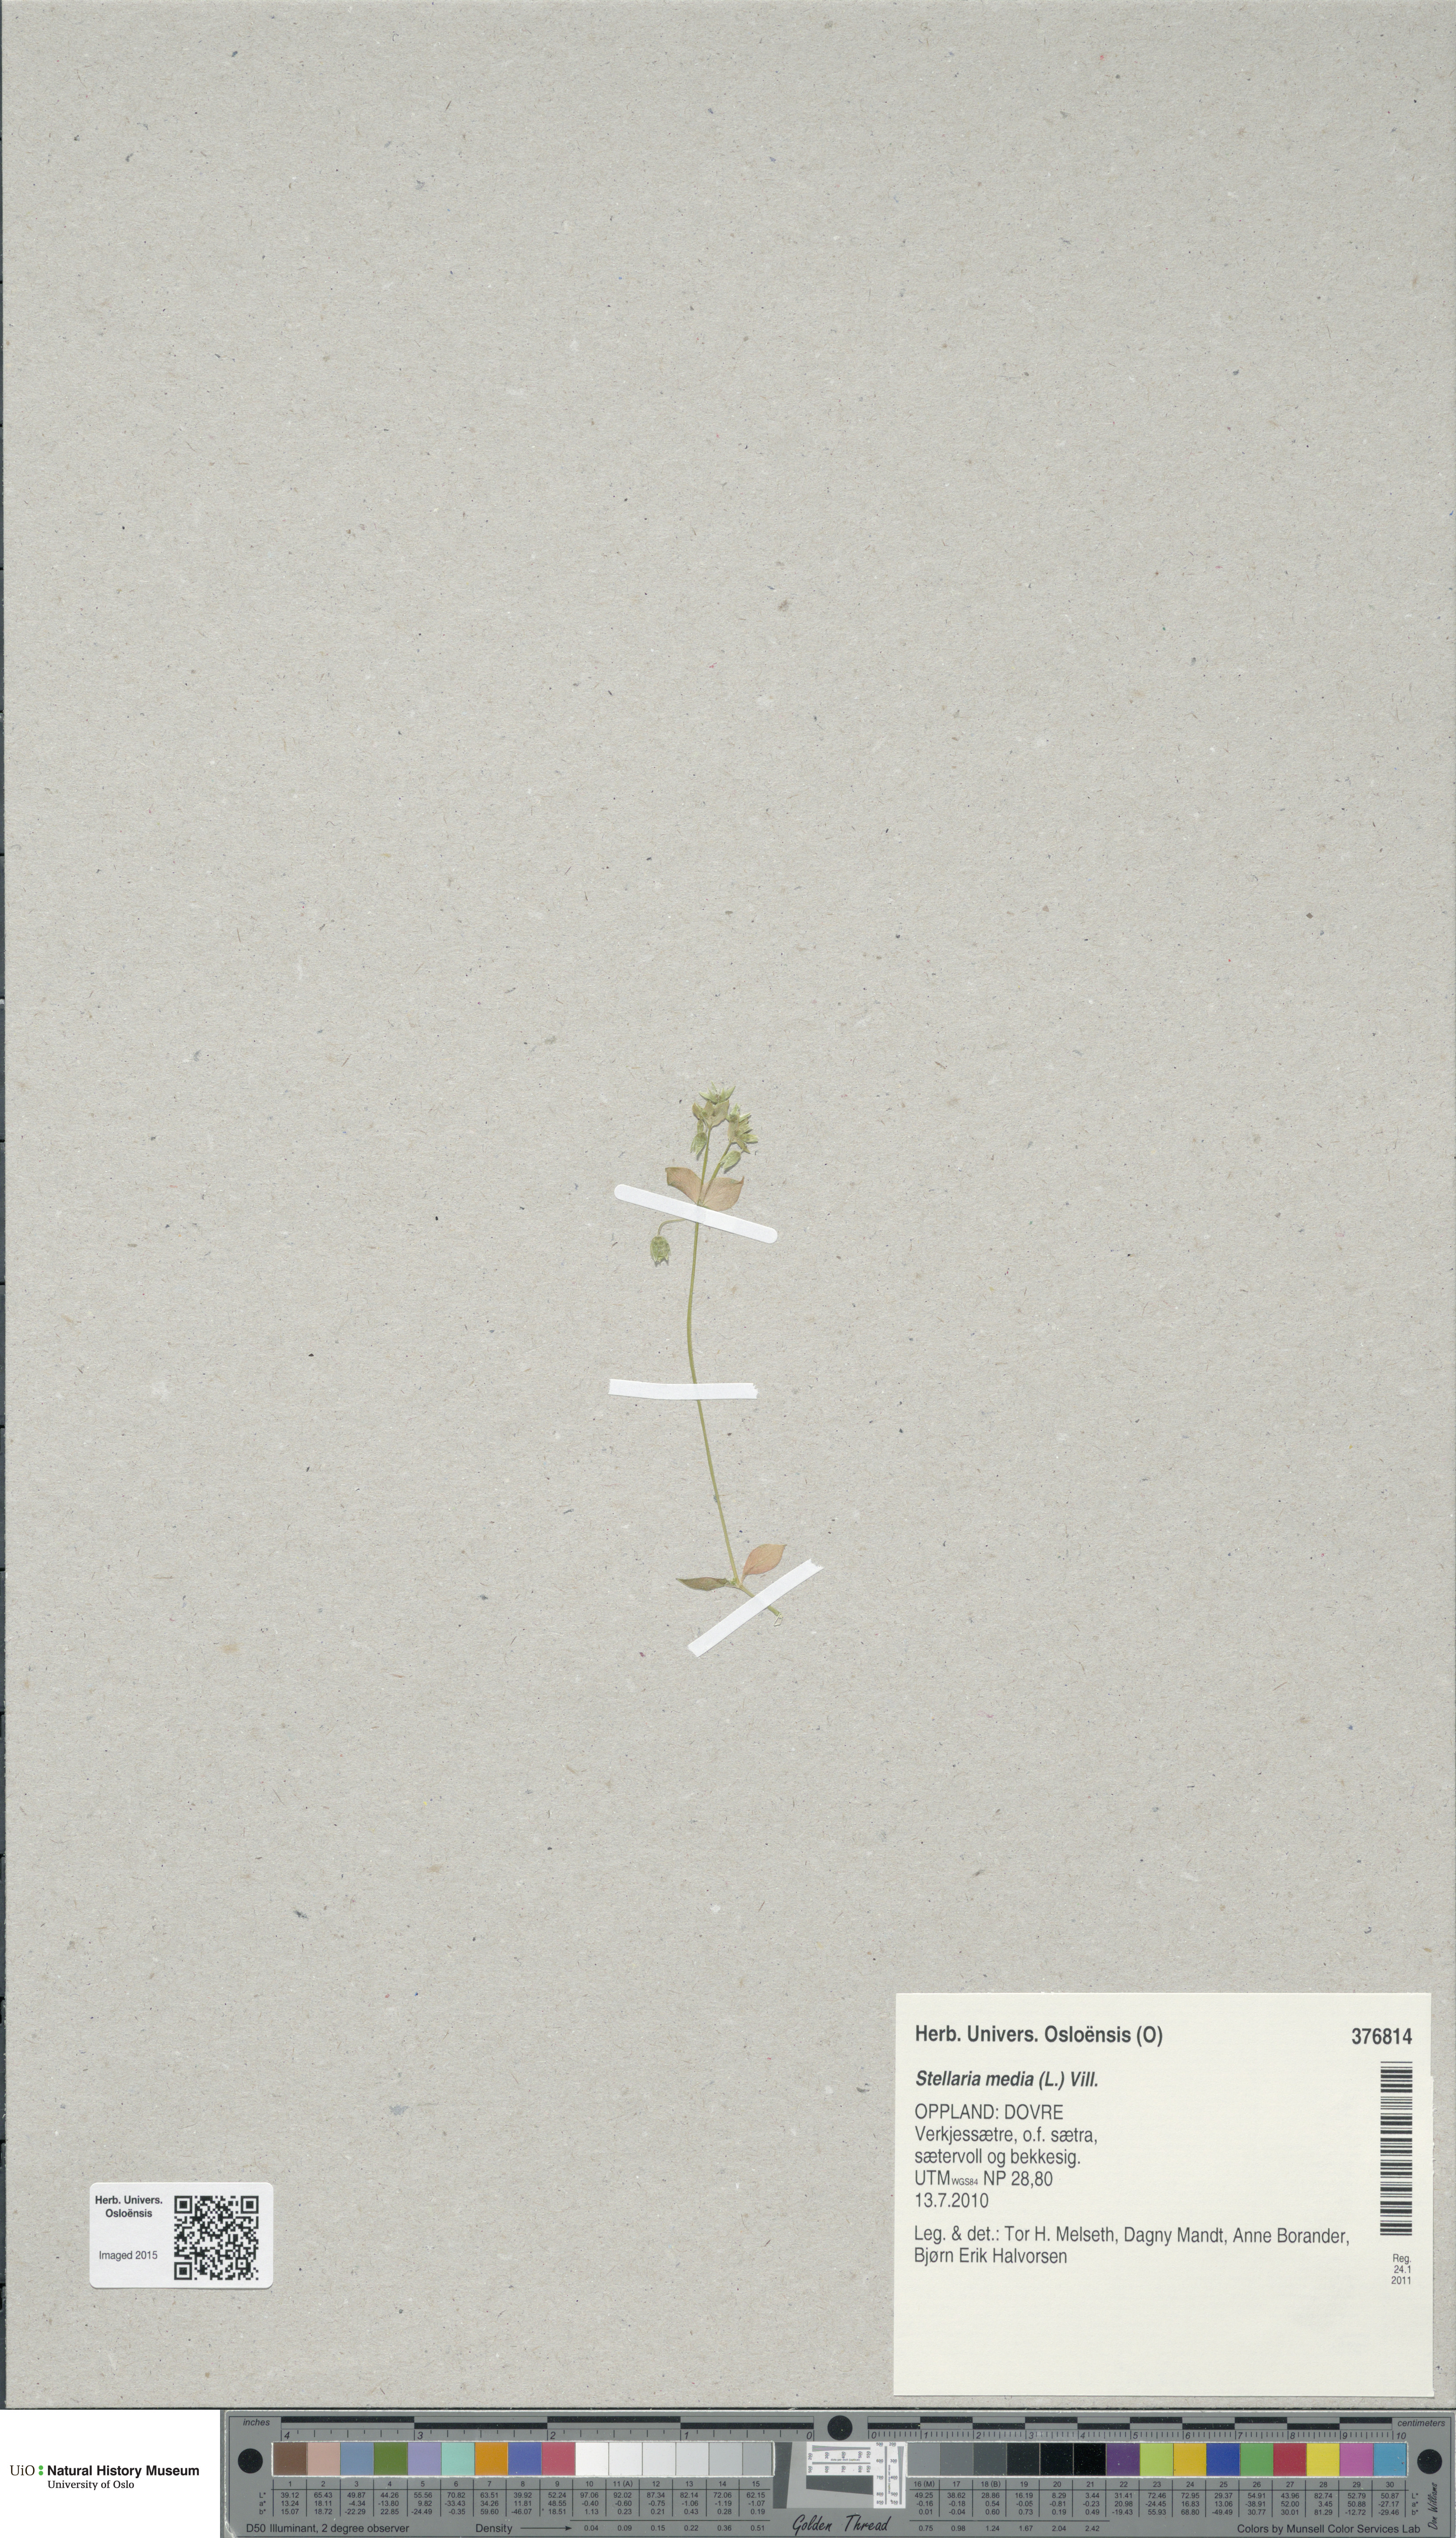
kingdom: Plantae
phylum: Tracheophyta
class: Magnoliopsida
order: Caryophyllales
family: Caryophyllaceae
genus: Stellaria
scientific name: Stellaria media
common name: Common chickweed
